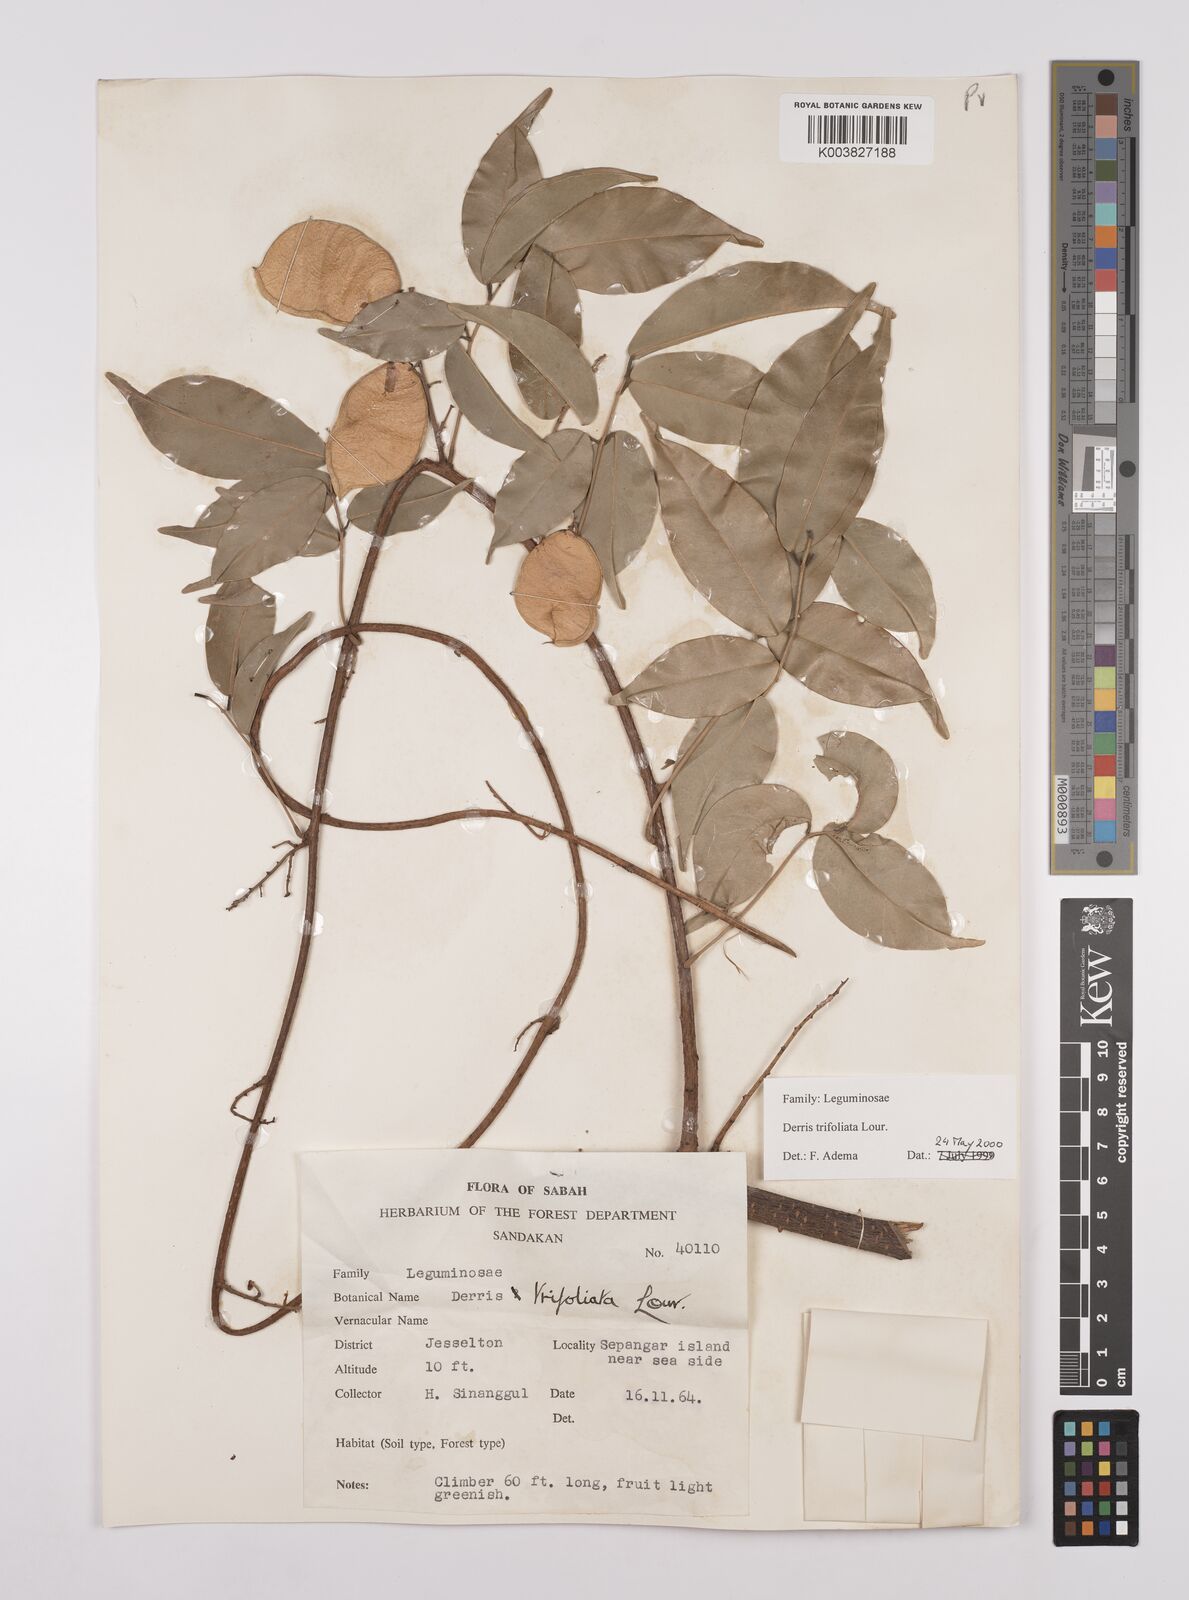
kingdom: Plantae
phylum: Tracheophyta
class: Magnoliopsida
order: Fabales
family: Fabaceae
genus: Derris
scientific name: Derris trifoliata
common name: Three-leaf derris
